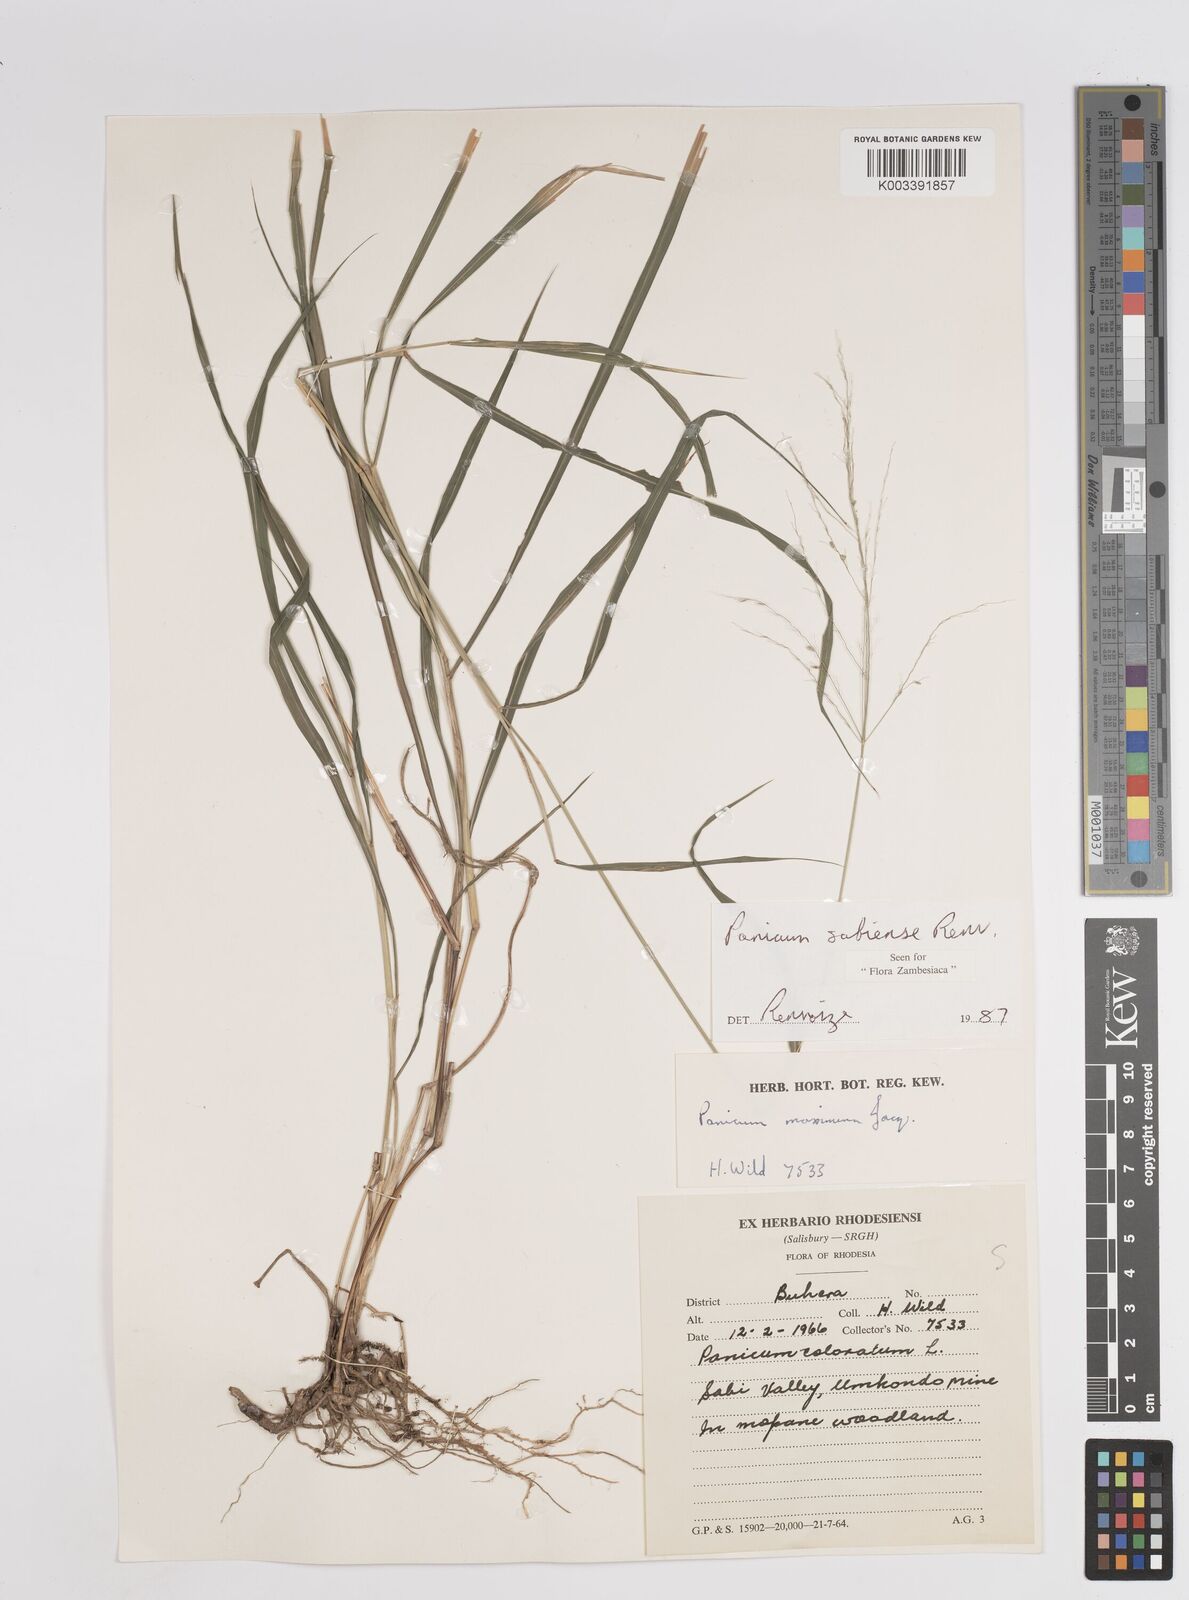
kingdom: Plantae
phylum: Tracheophyta
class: Liliopsida
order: Poales
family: Poaceae
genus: Panicum
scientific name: Panicum trichoides
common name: Tickle grass
